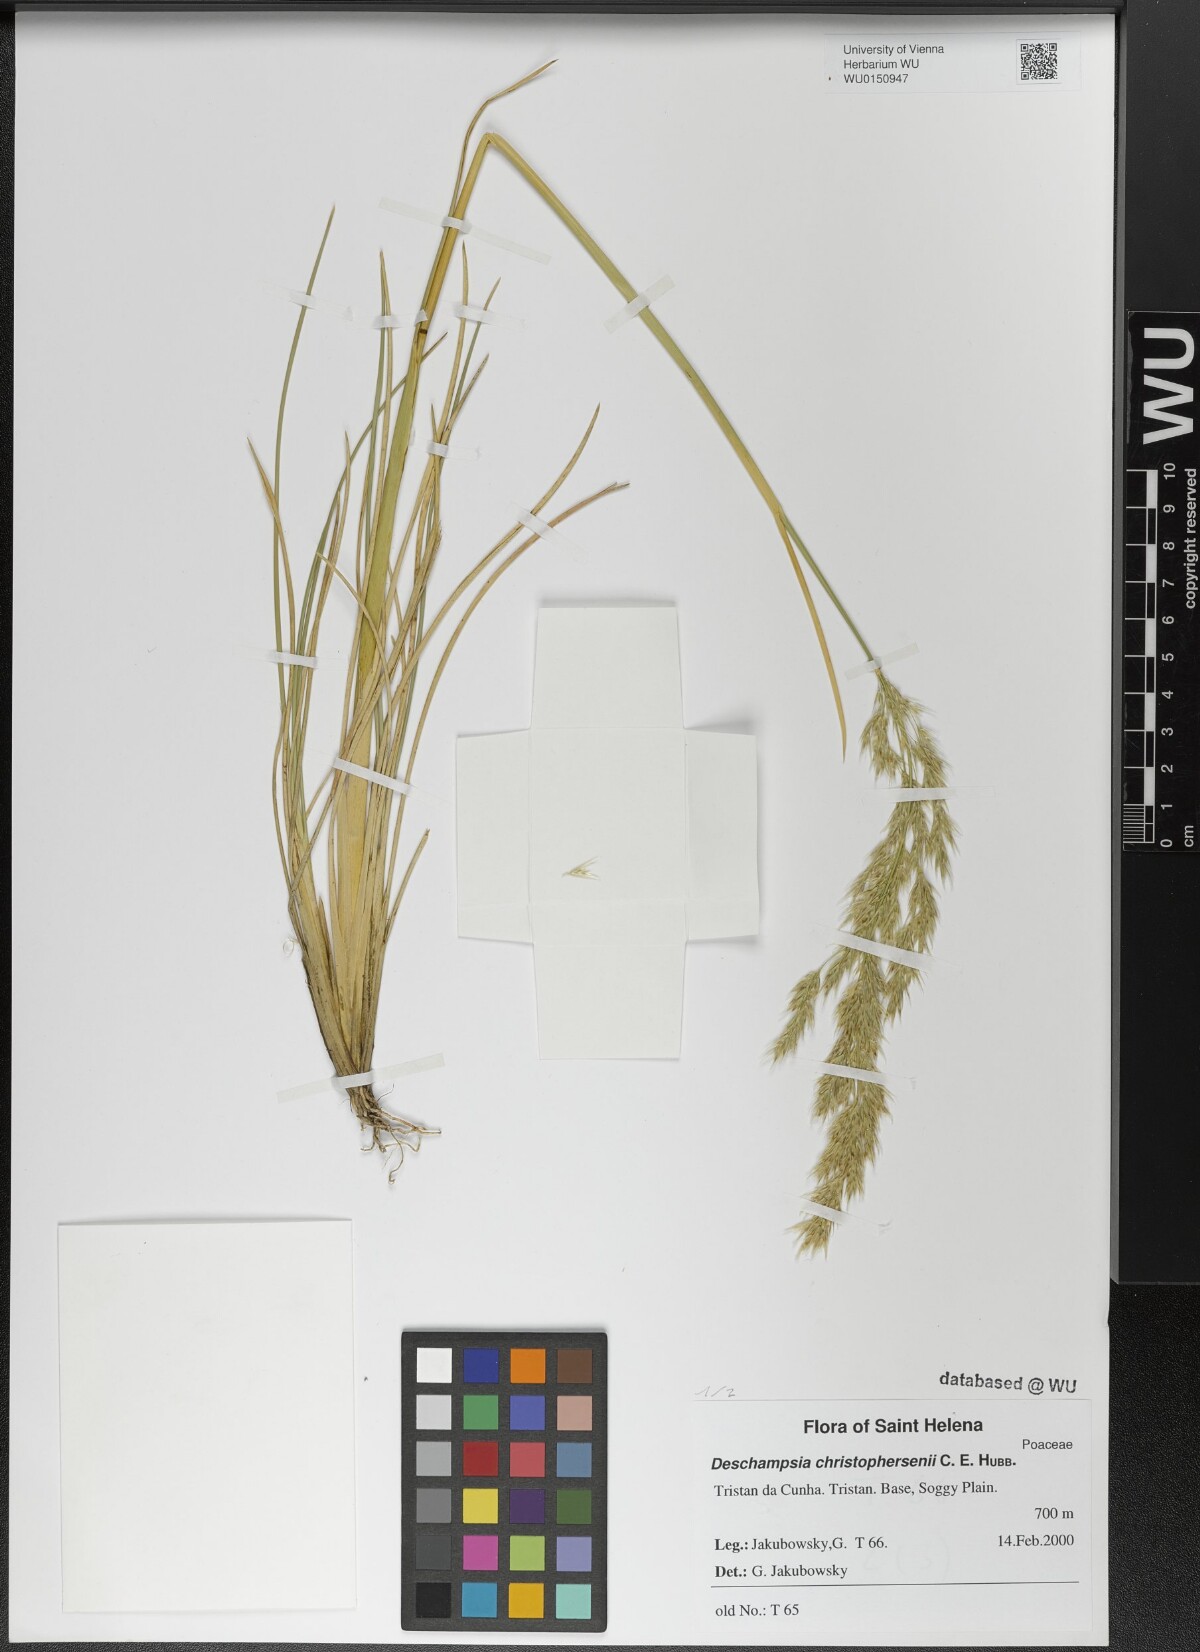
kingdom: Plantae
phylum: Tracheophyta
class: Liliopsida
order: Poales
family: Poaceae
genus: Deschampsia
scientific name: Deschampsia christophersenii
